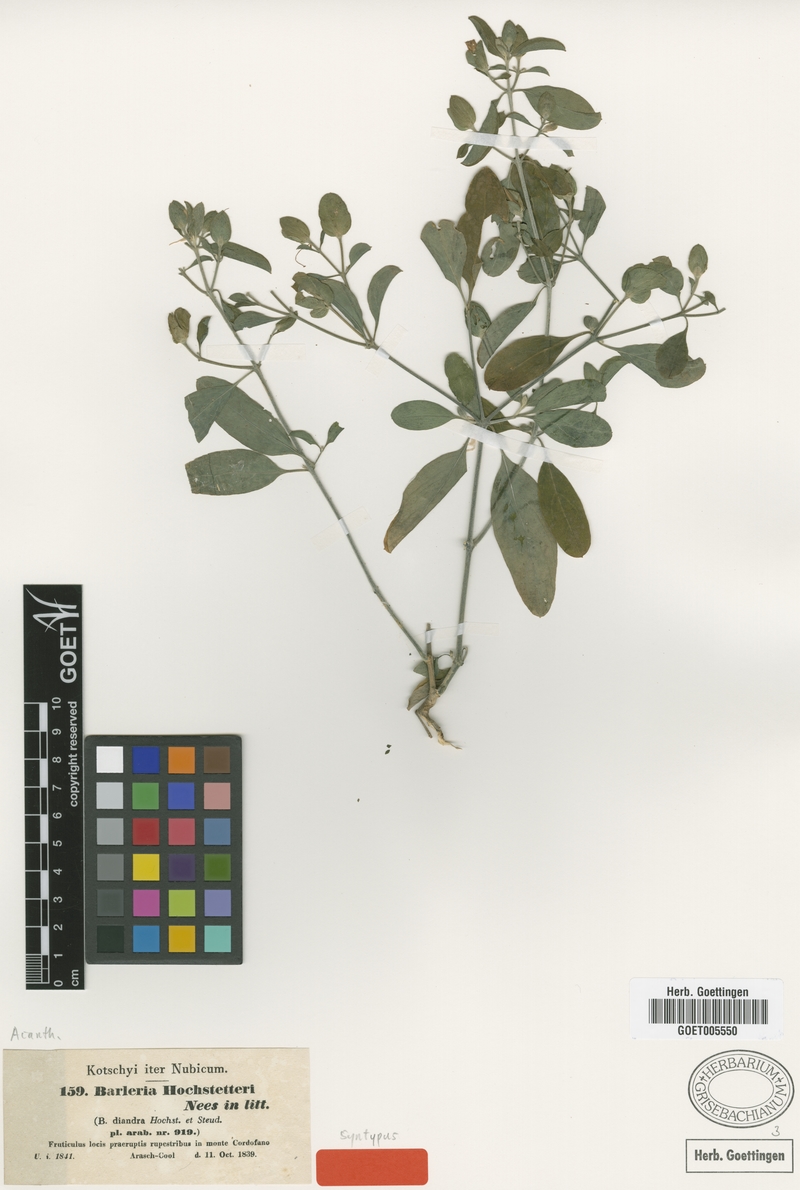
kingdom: Plantae
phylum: Tracheophyta
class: Magnoliopsida
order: Lamiales
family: Acanthaceae
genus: Barleria
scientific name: Barleria hochstetteri
